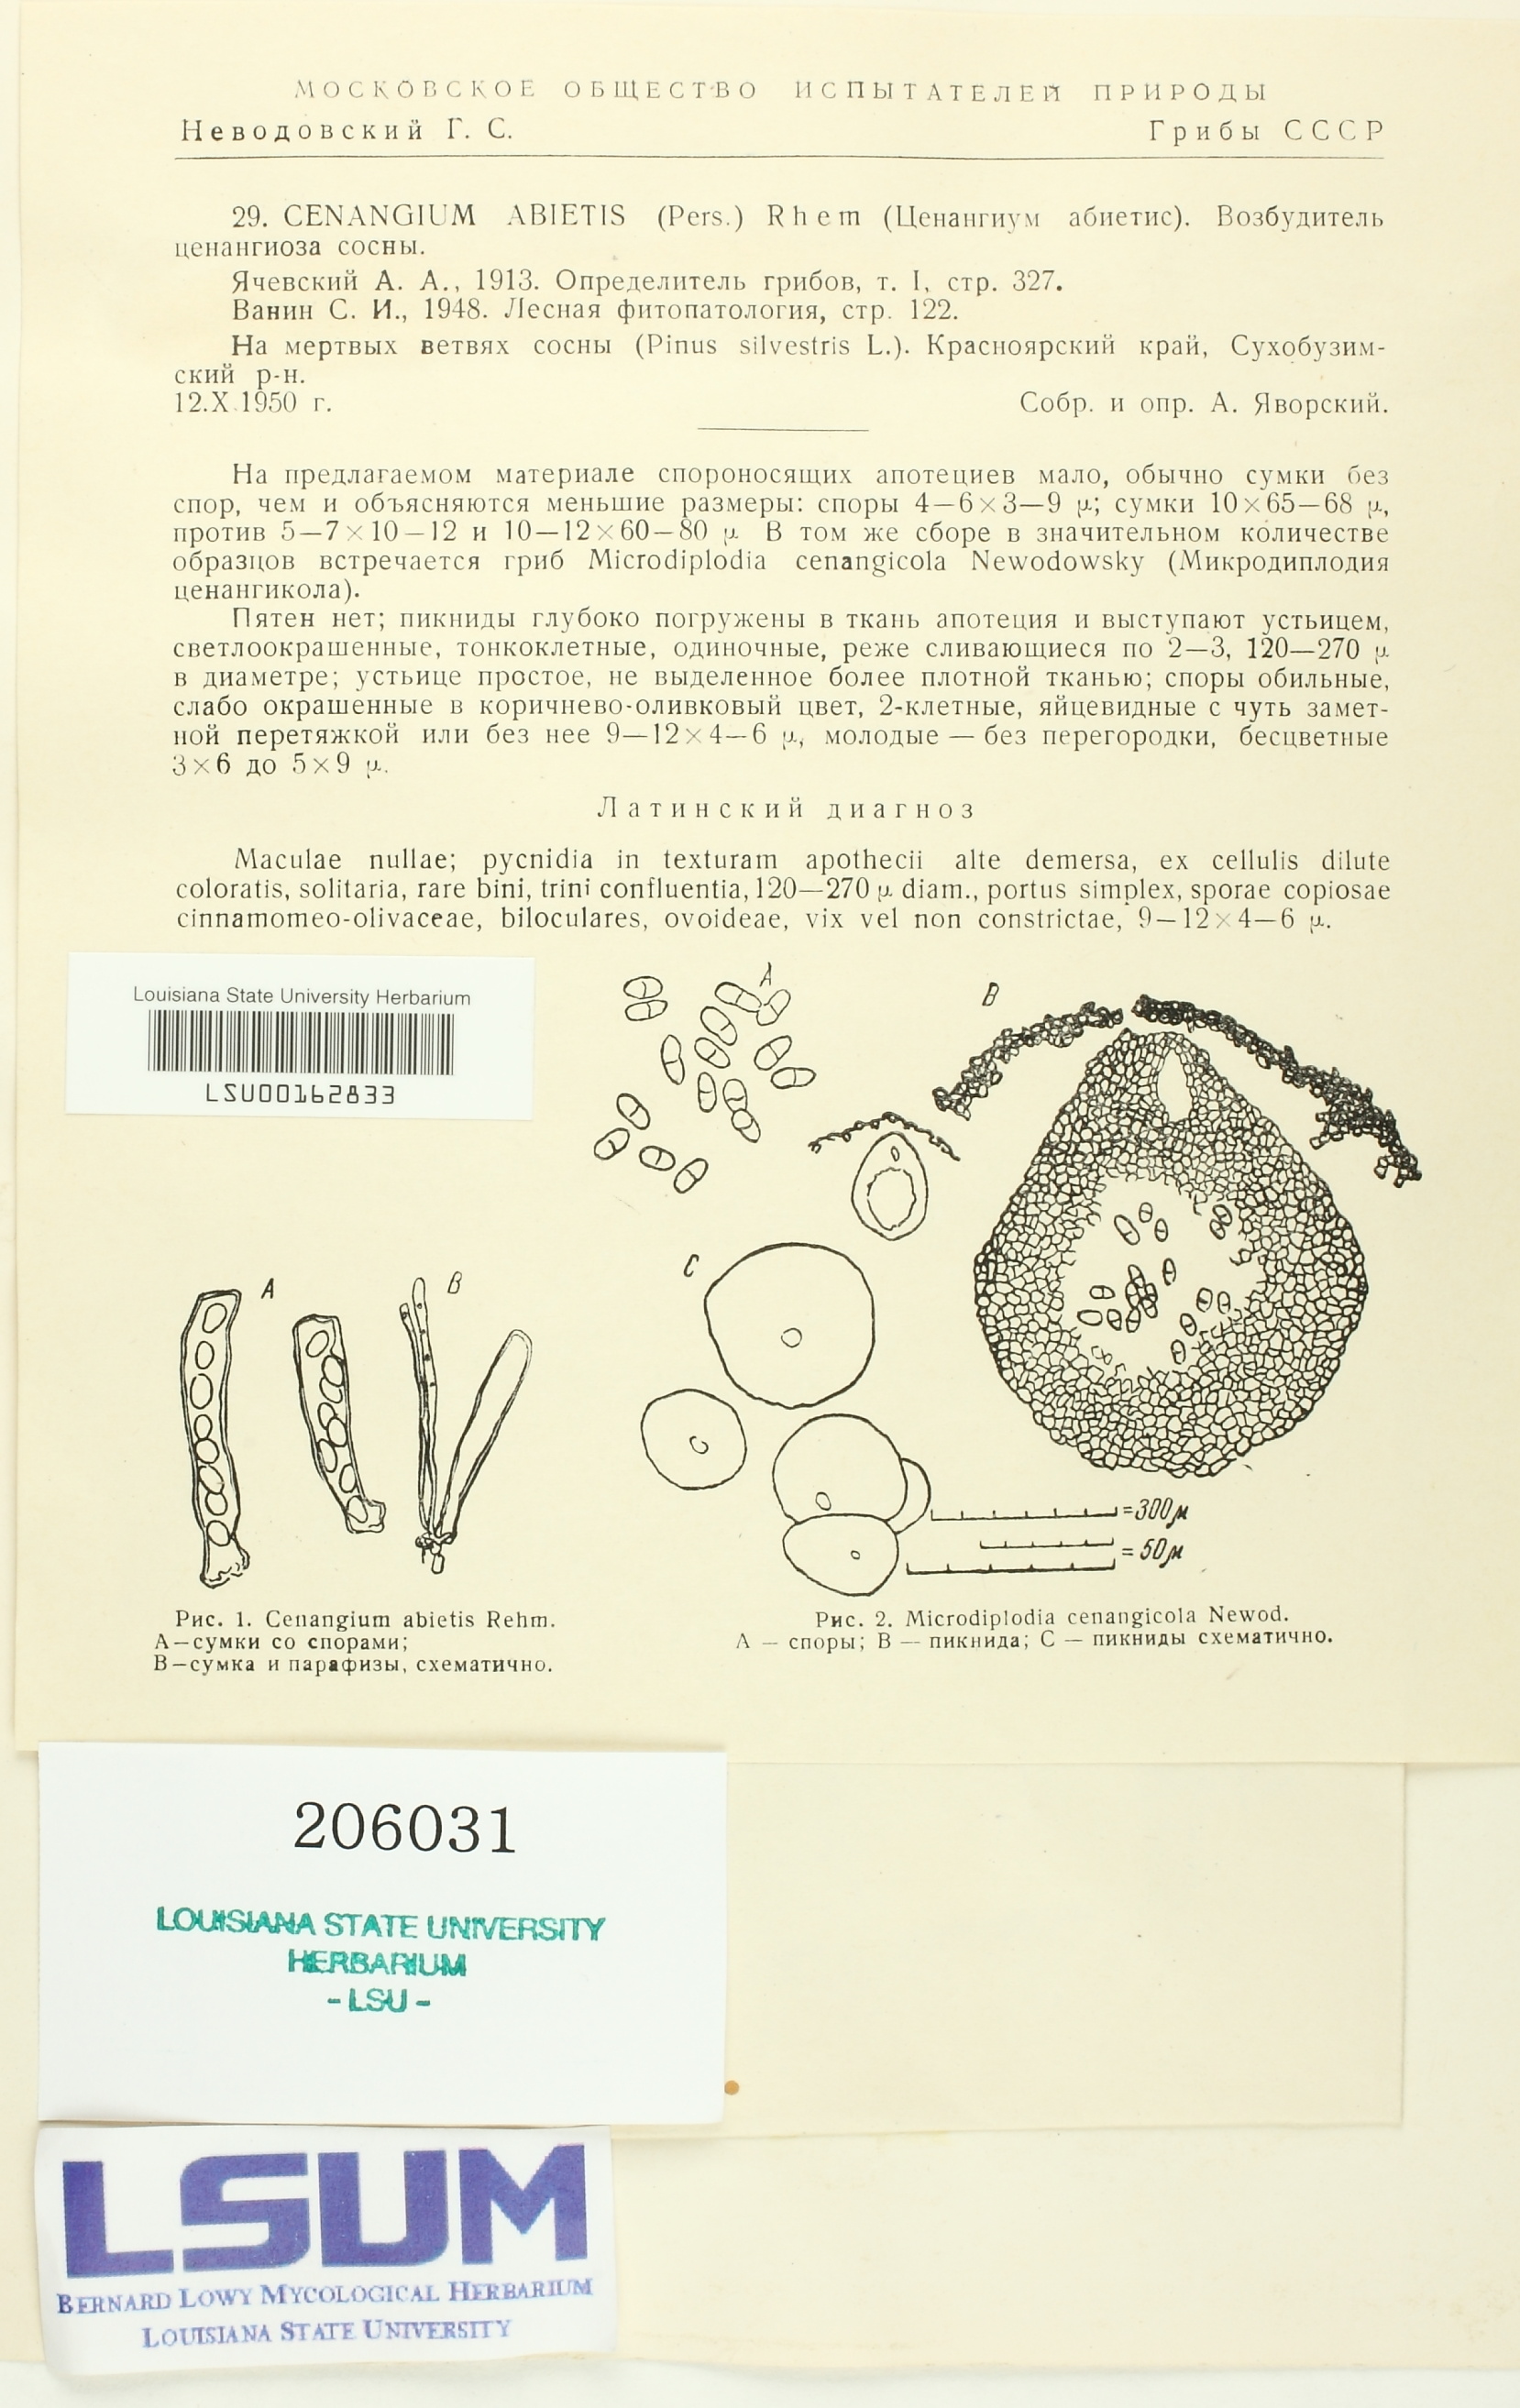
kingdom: Fungi
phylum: Ascomycota
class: Leotiomycetes
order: Helotiales
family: Cenangiaceae
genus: Cenangium
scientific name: Cenangium ferruginosum
